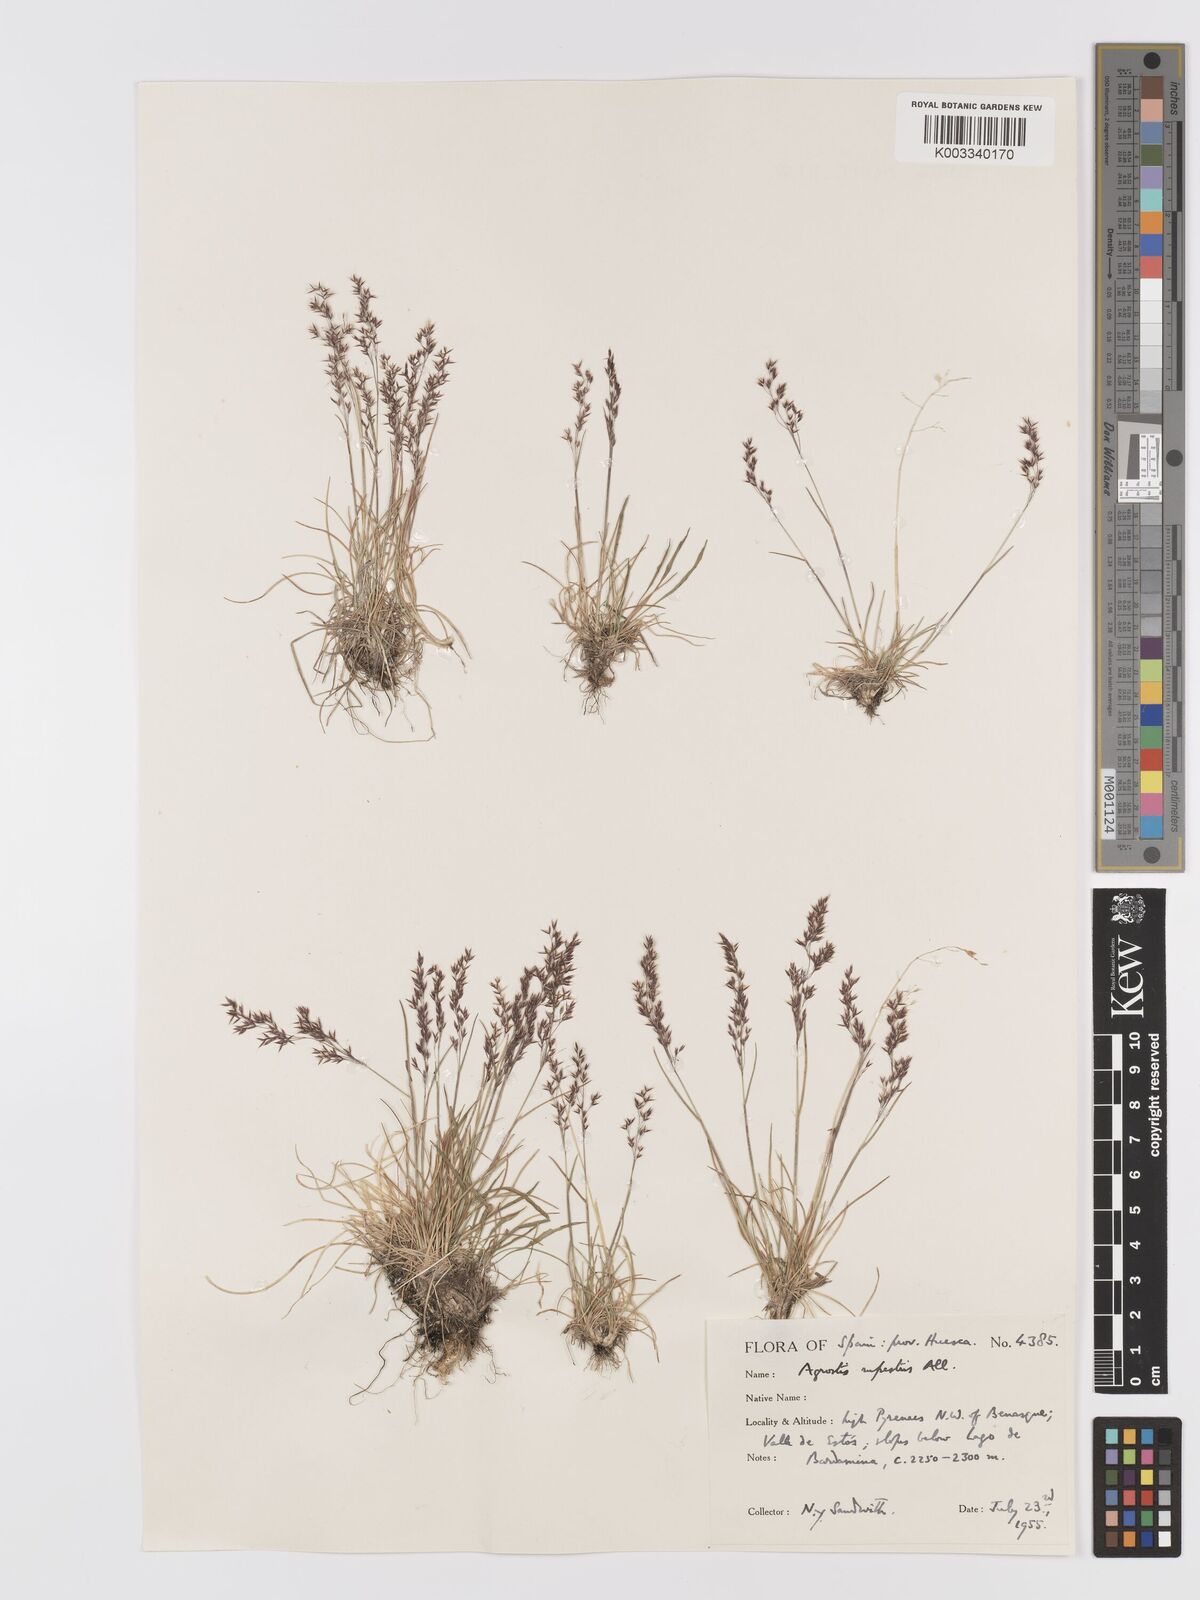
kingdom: Plantae
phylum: Tracheophyta
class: Liliopsida
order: Poales
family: Poaceae
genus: Agrostis
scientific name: Agrostis rupestris
